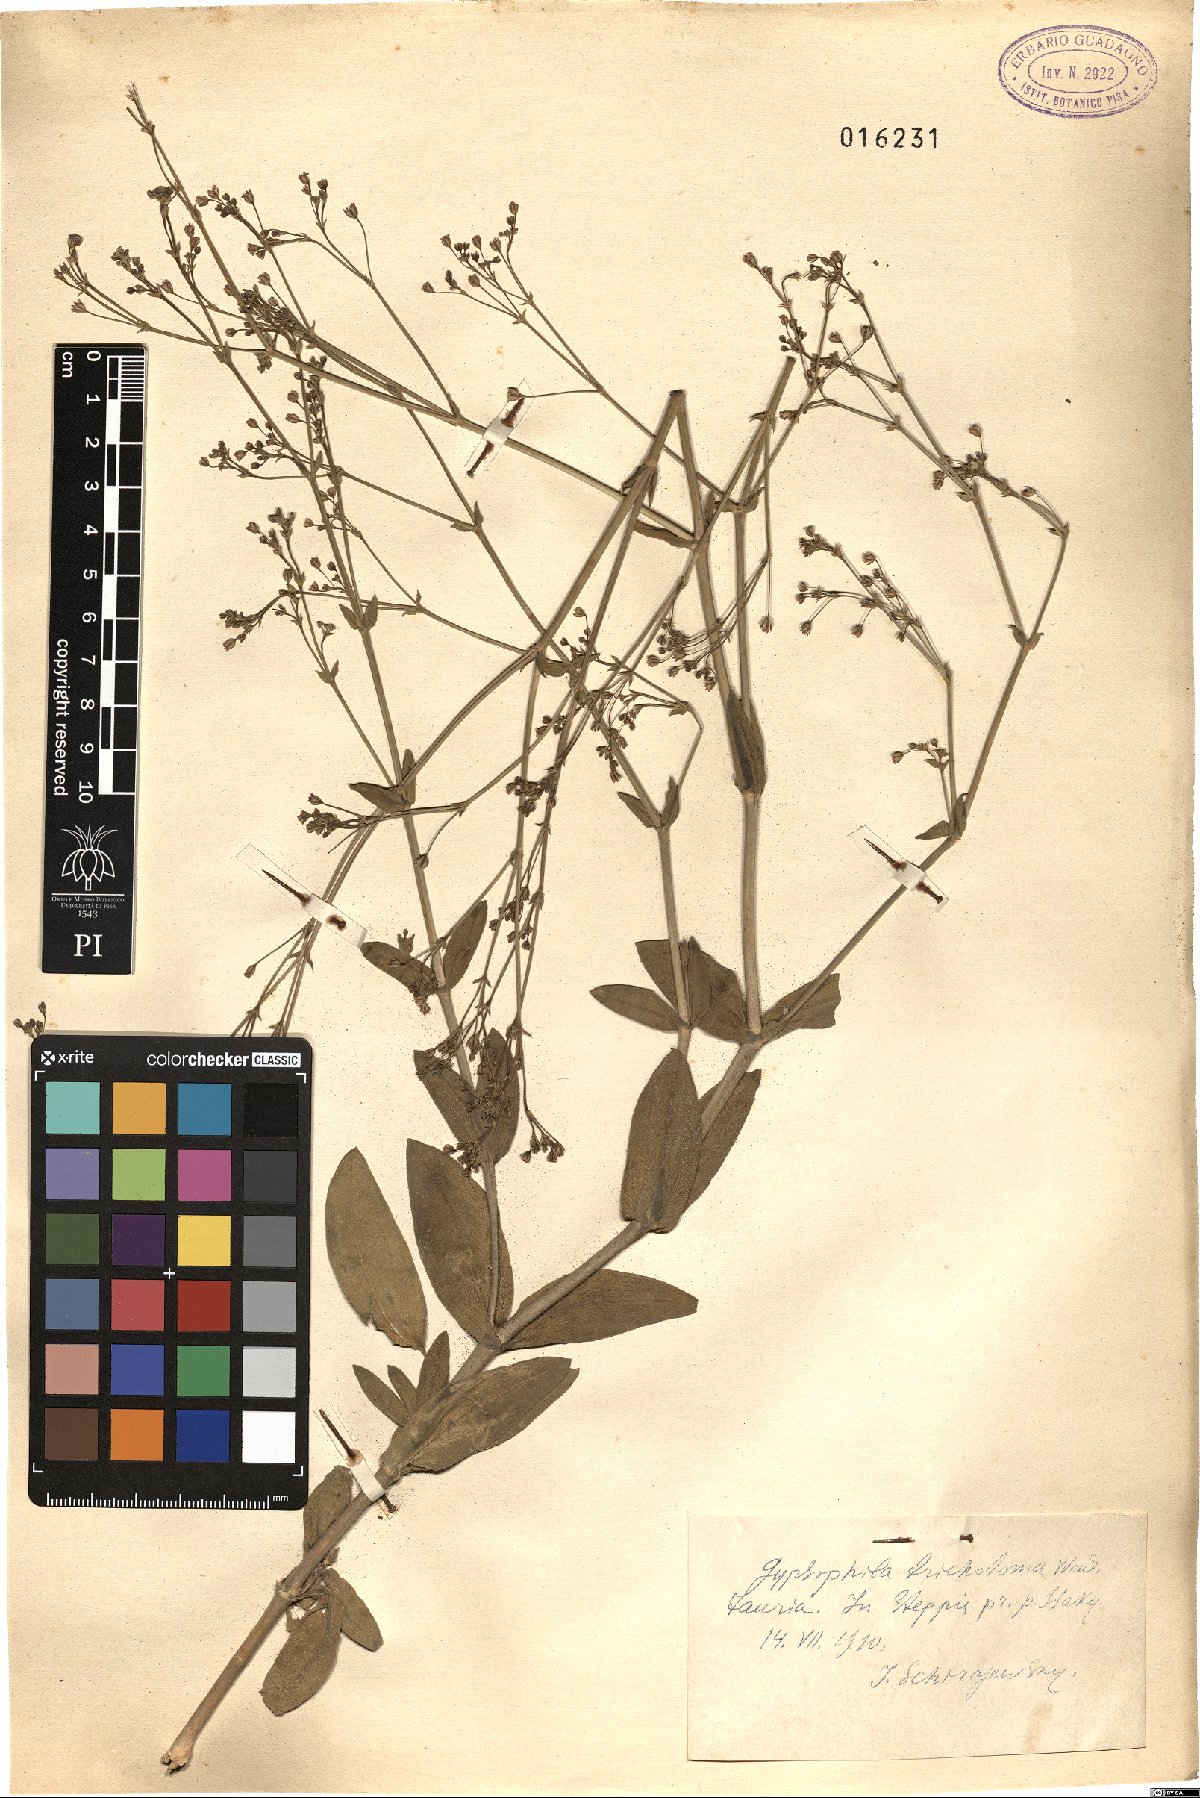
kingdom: Plantae
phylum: Tracheophyta
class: Magnoliopsida
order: Caryophyllales
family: Caryophyllaceae
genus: Gypsophila
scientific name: Gypsophila perfoliata
